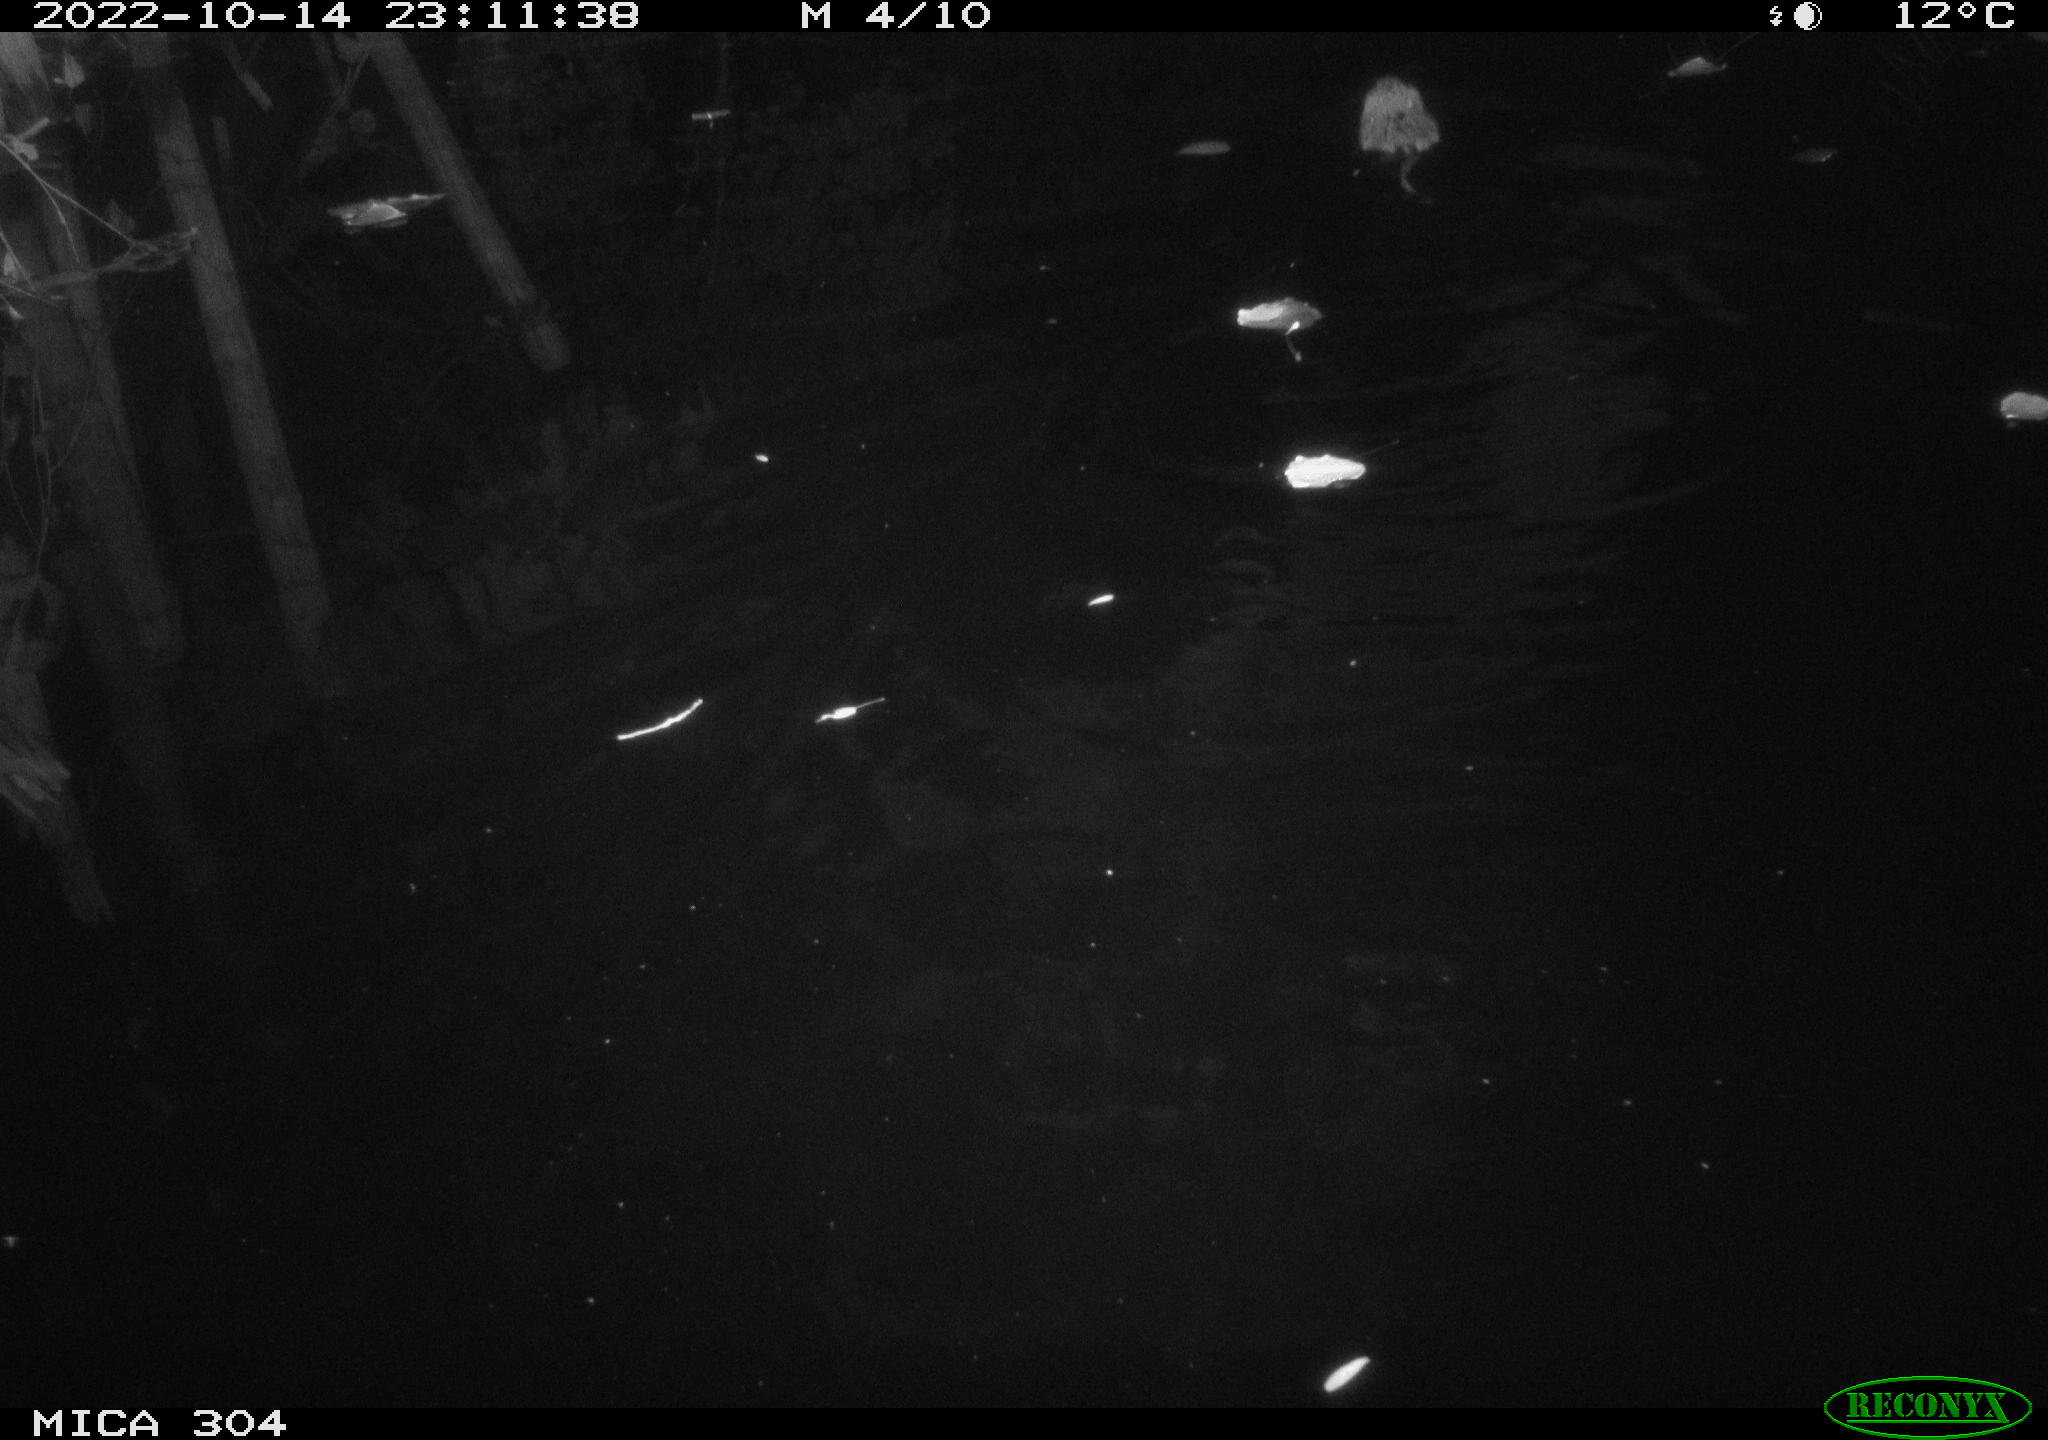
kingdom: Animalia
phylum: Chordata
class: Mammalia
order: Rodentia
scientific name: Rodentia
